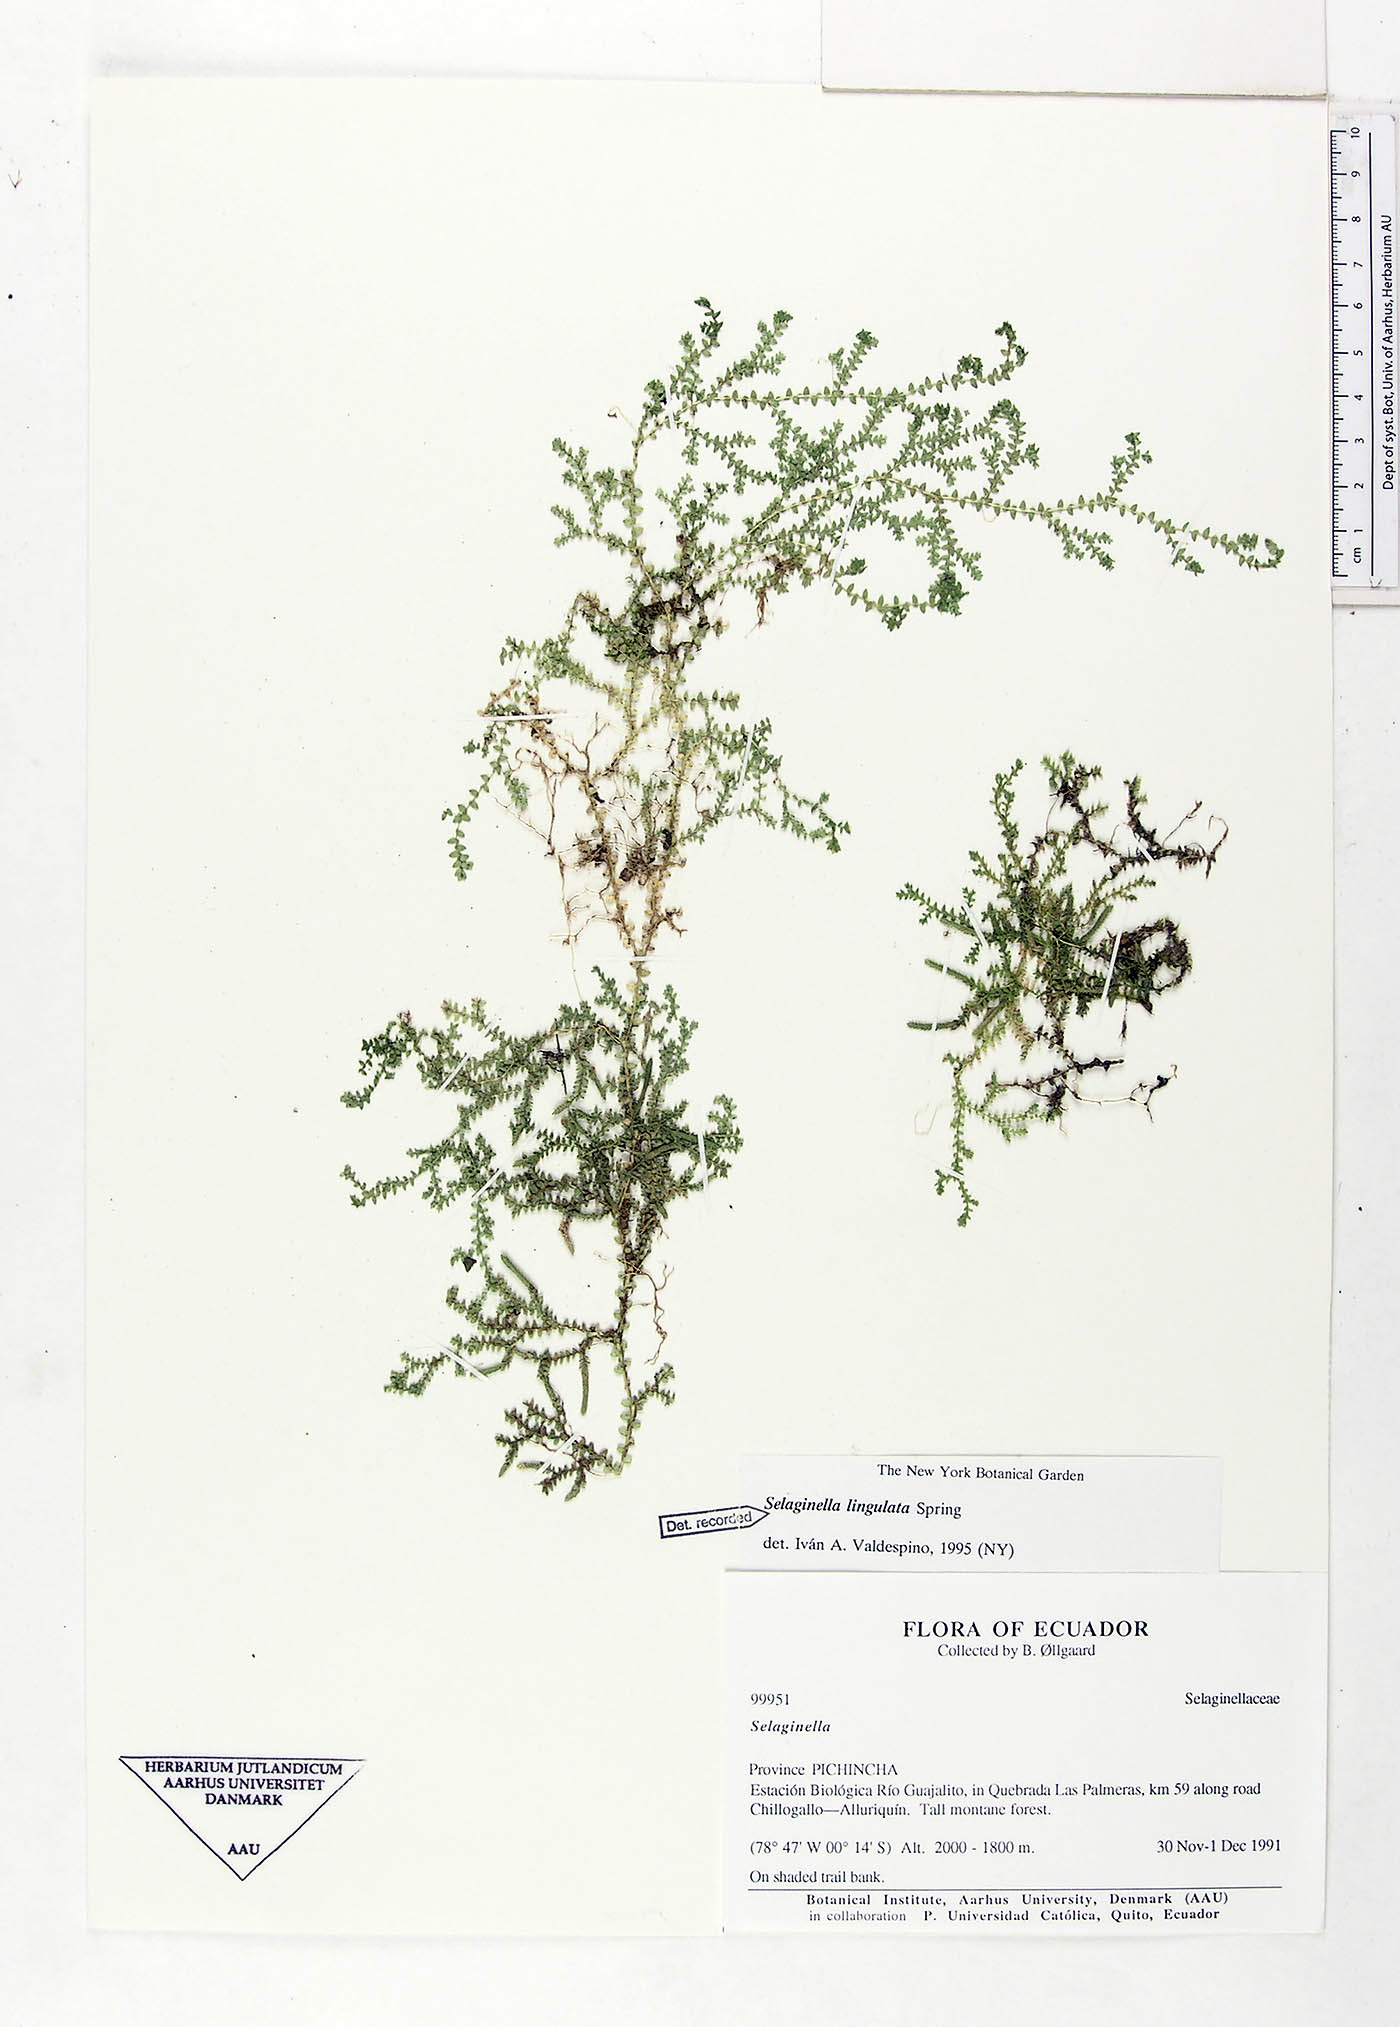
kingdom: Plantae
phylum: Tracheophyta
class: Lycopodiopsida
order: Selaginellales
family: Selaginellaceae
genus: Selaginella
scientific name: Selaginella lingulata
